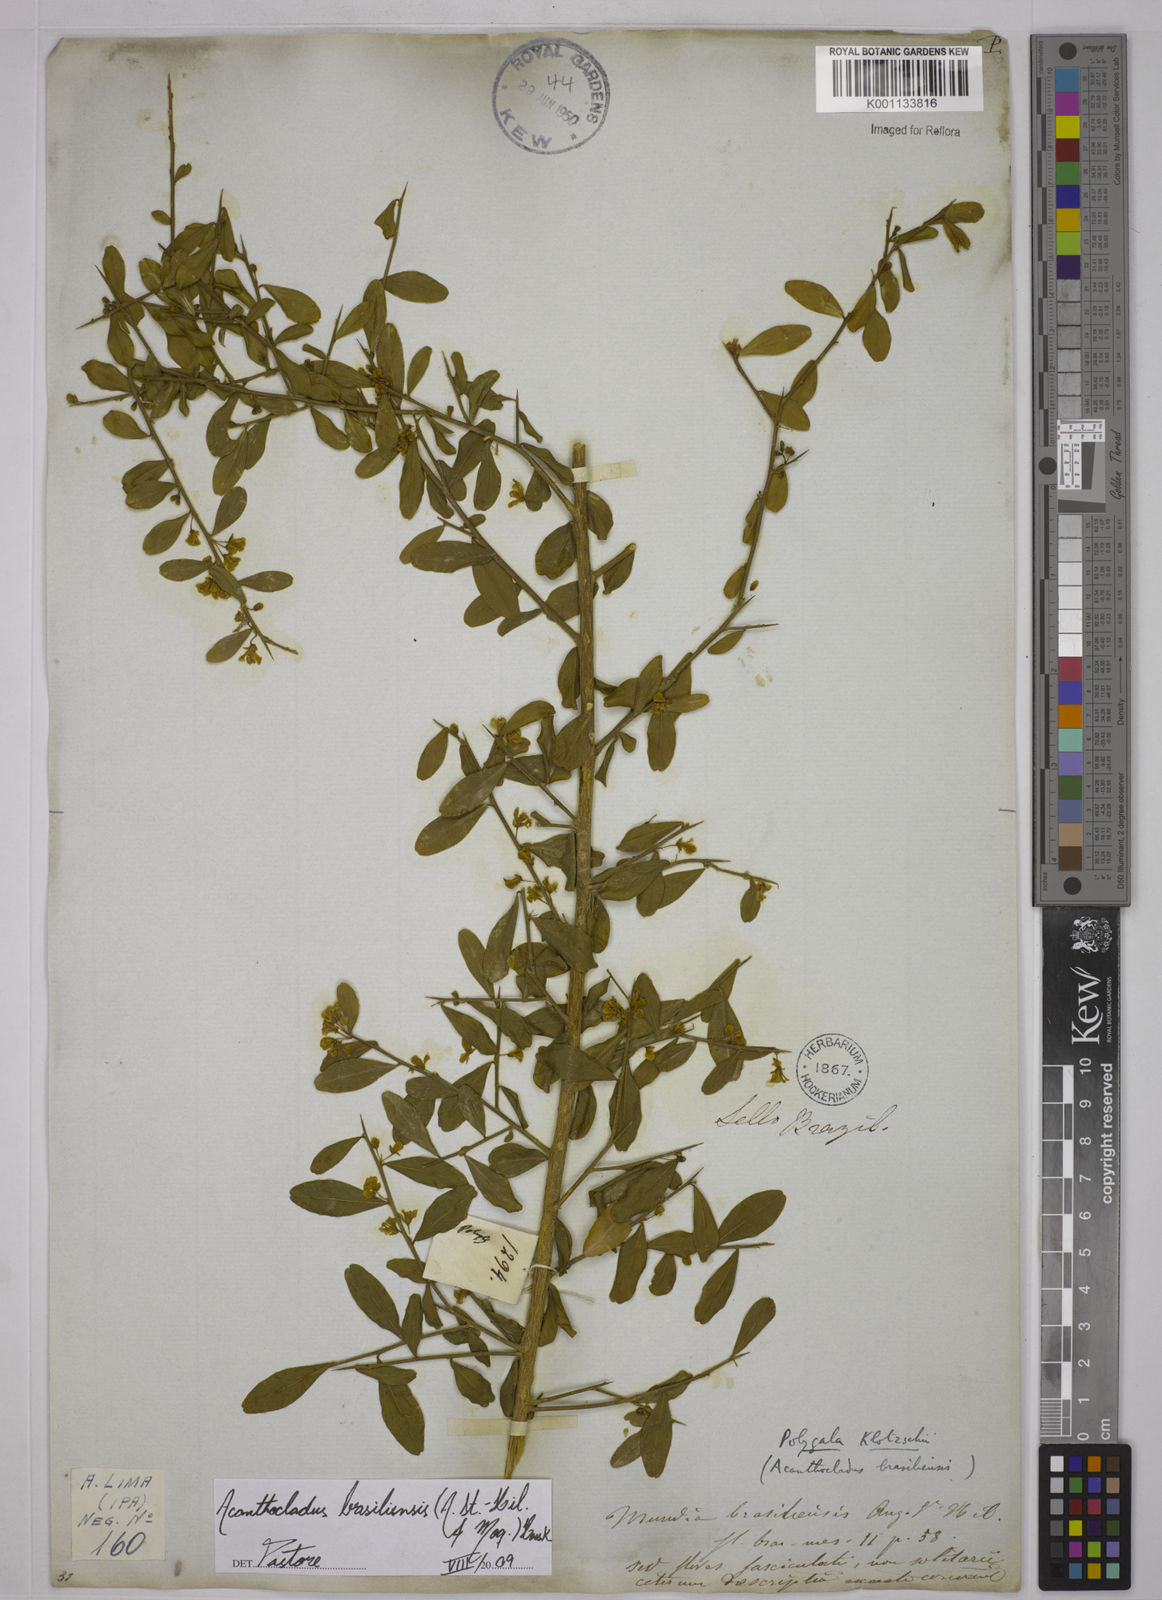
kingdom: Plantae
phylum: Tracheophyta
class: Magnoliopsida
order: Fabales
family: Polygalaceae
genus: Acanthocladus
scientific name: Acanthocladus brasiliensis
